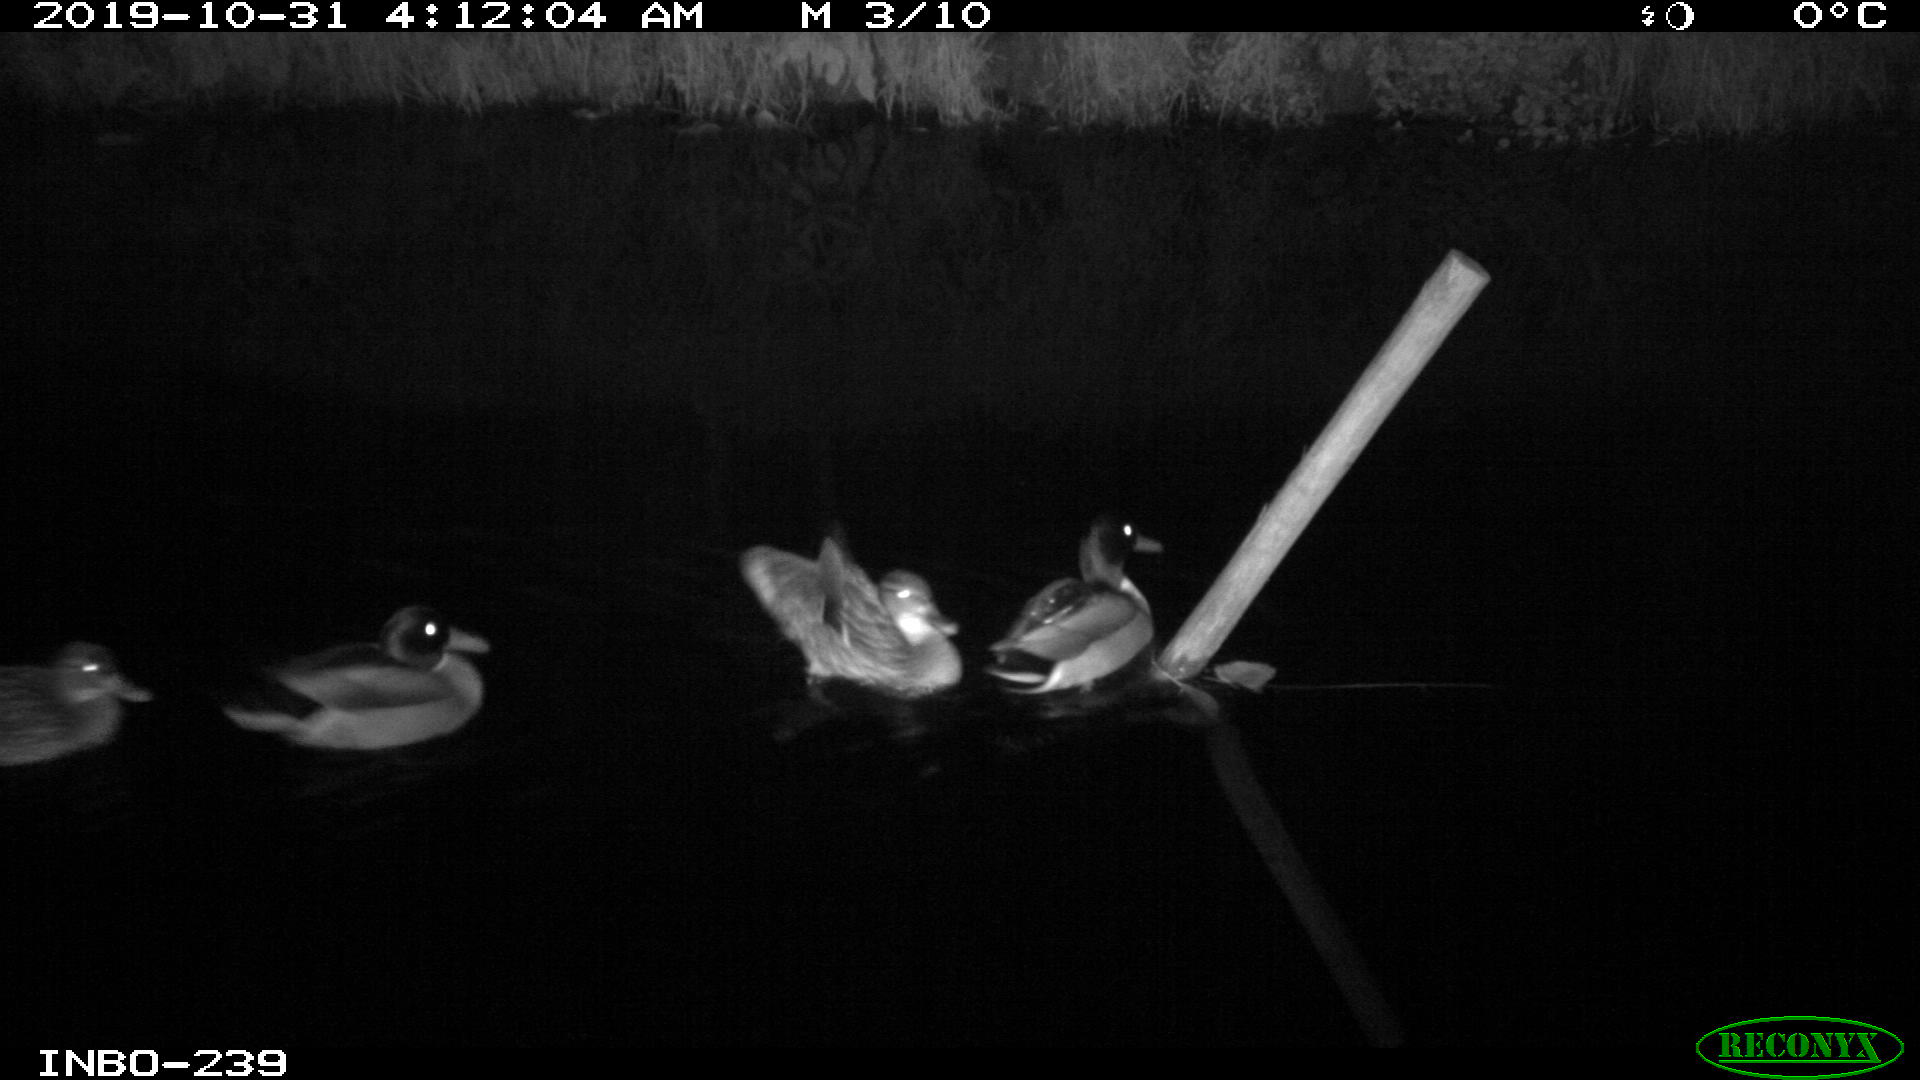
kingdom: Animalia
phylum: Chordata
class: Aves
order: Anseriformes
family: Anatidae
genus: Anas
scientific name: Anas platyrhynchos
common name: Mallard
